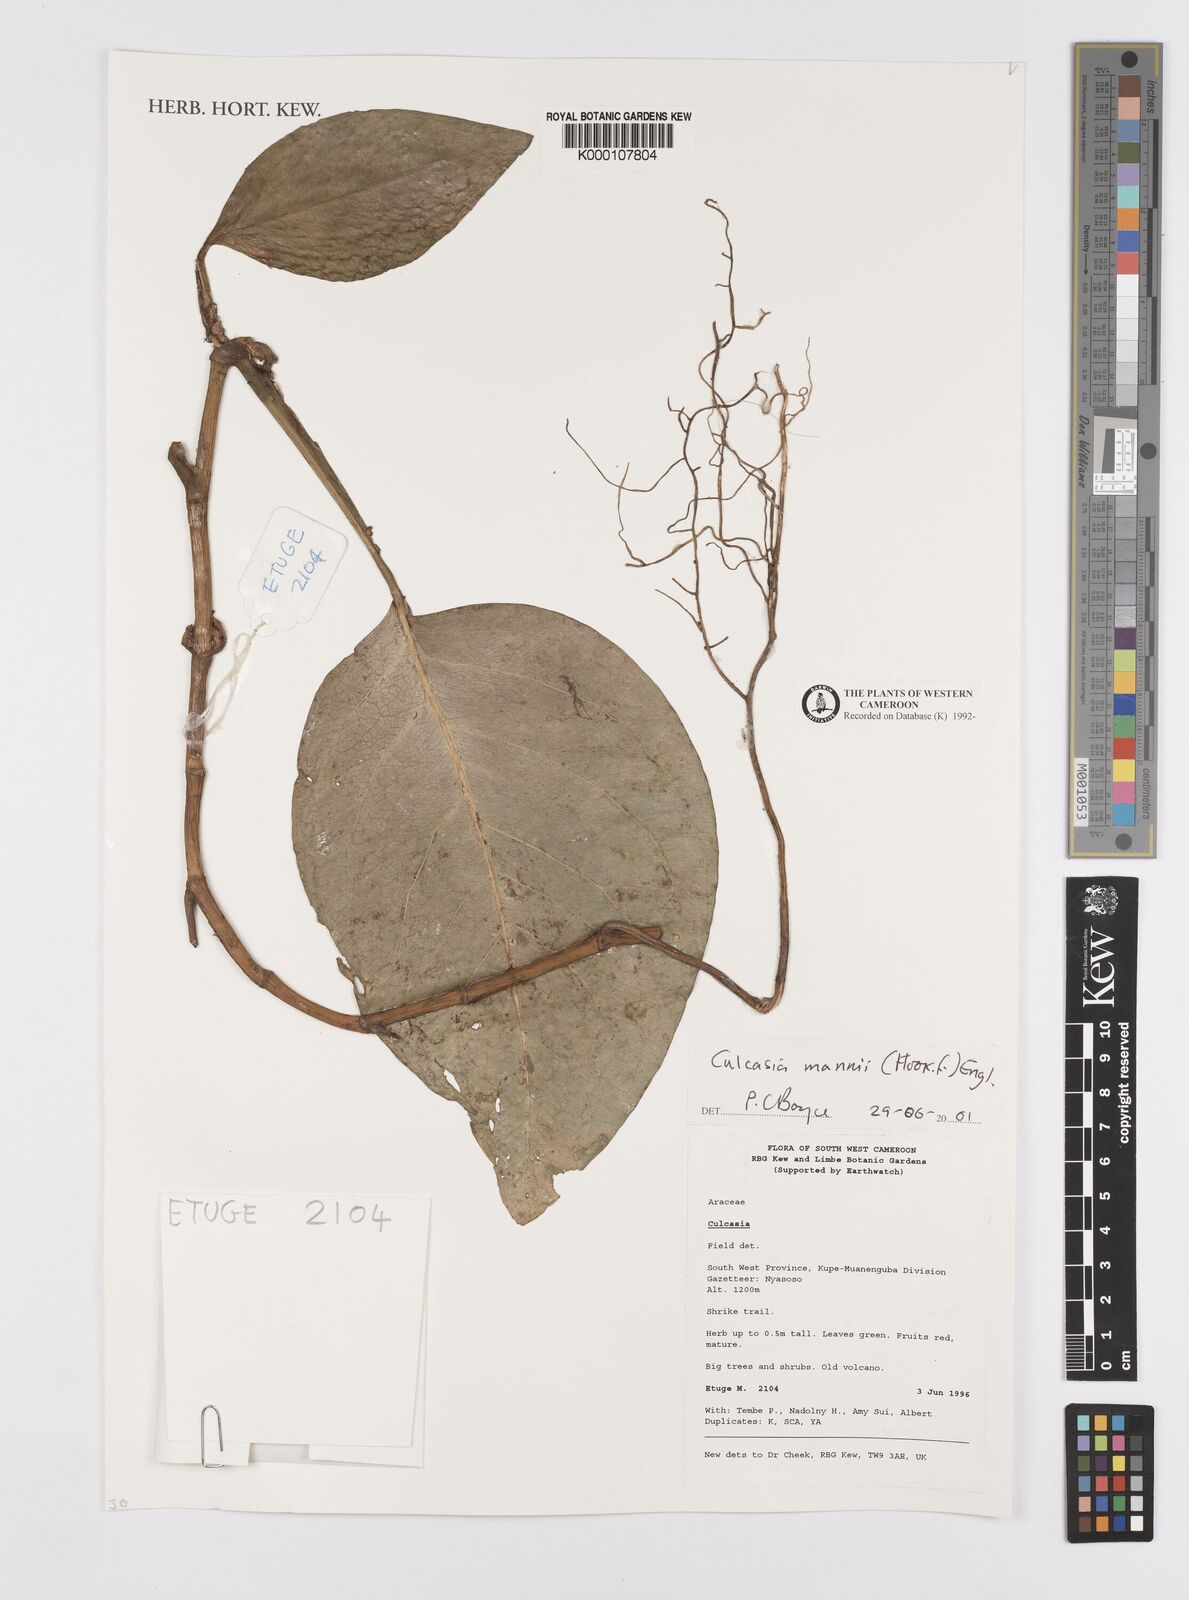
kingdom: Plantae
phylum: Tracheophyta
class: Liliopsida
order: Alismatales
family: Araceae
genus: Culcasia
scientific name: Culcasia mannii
